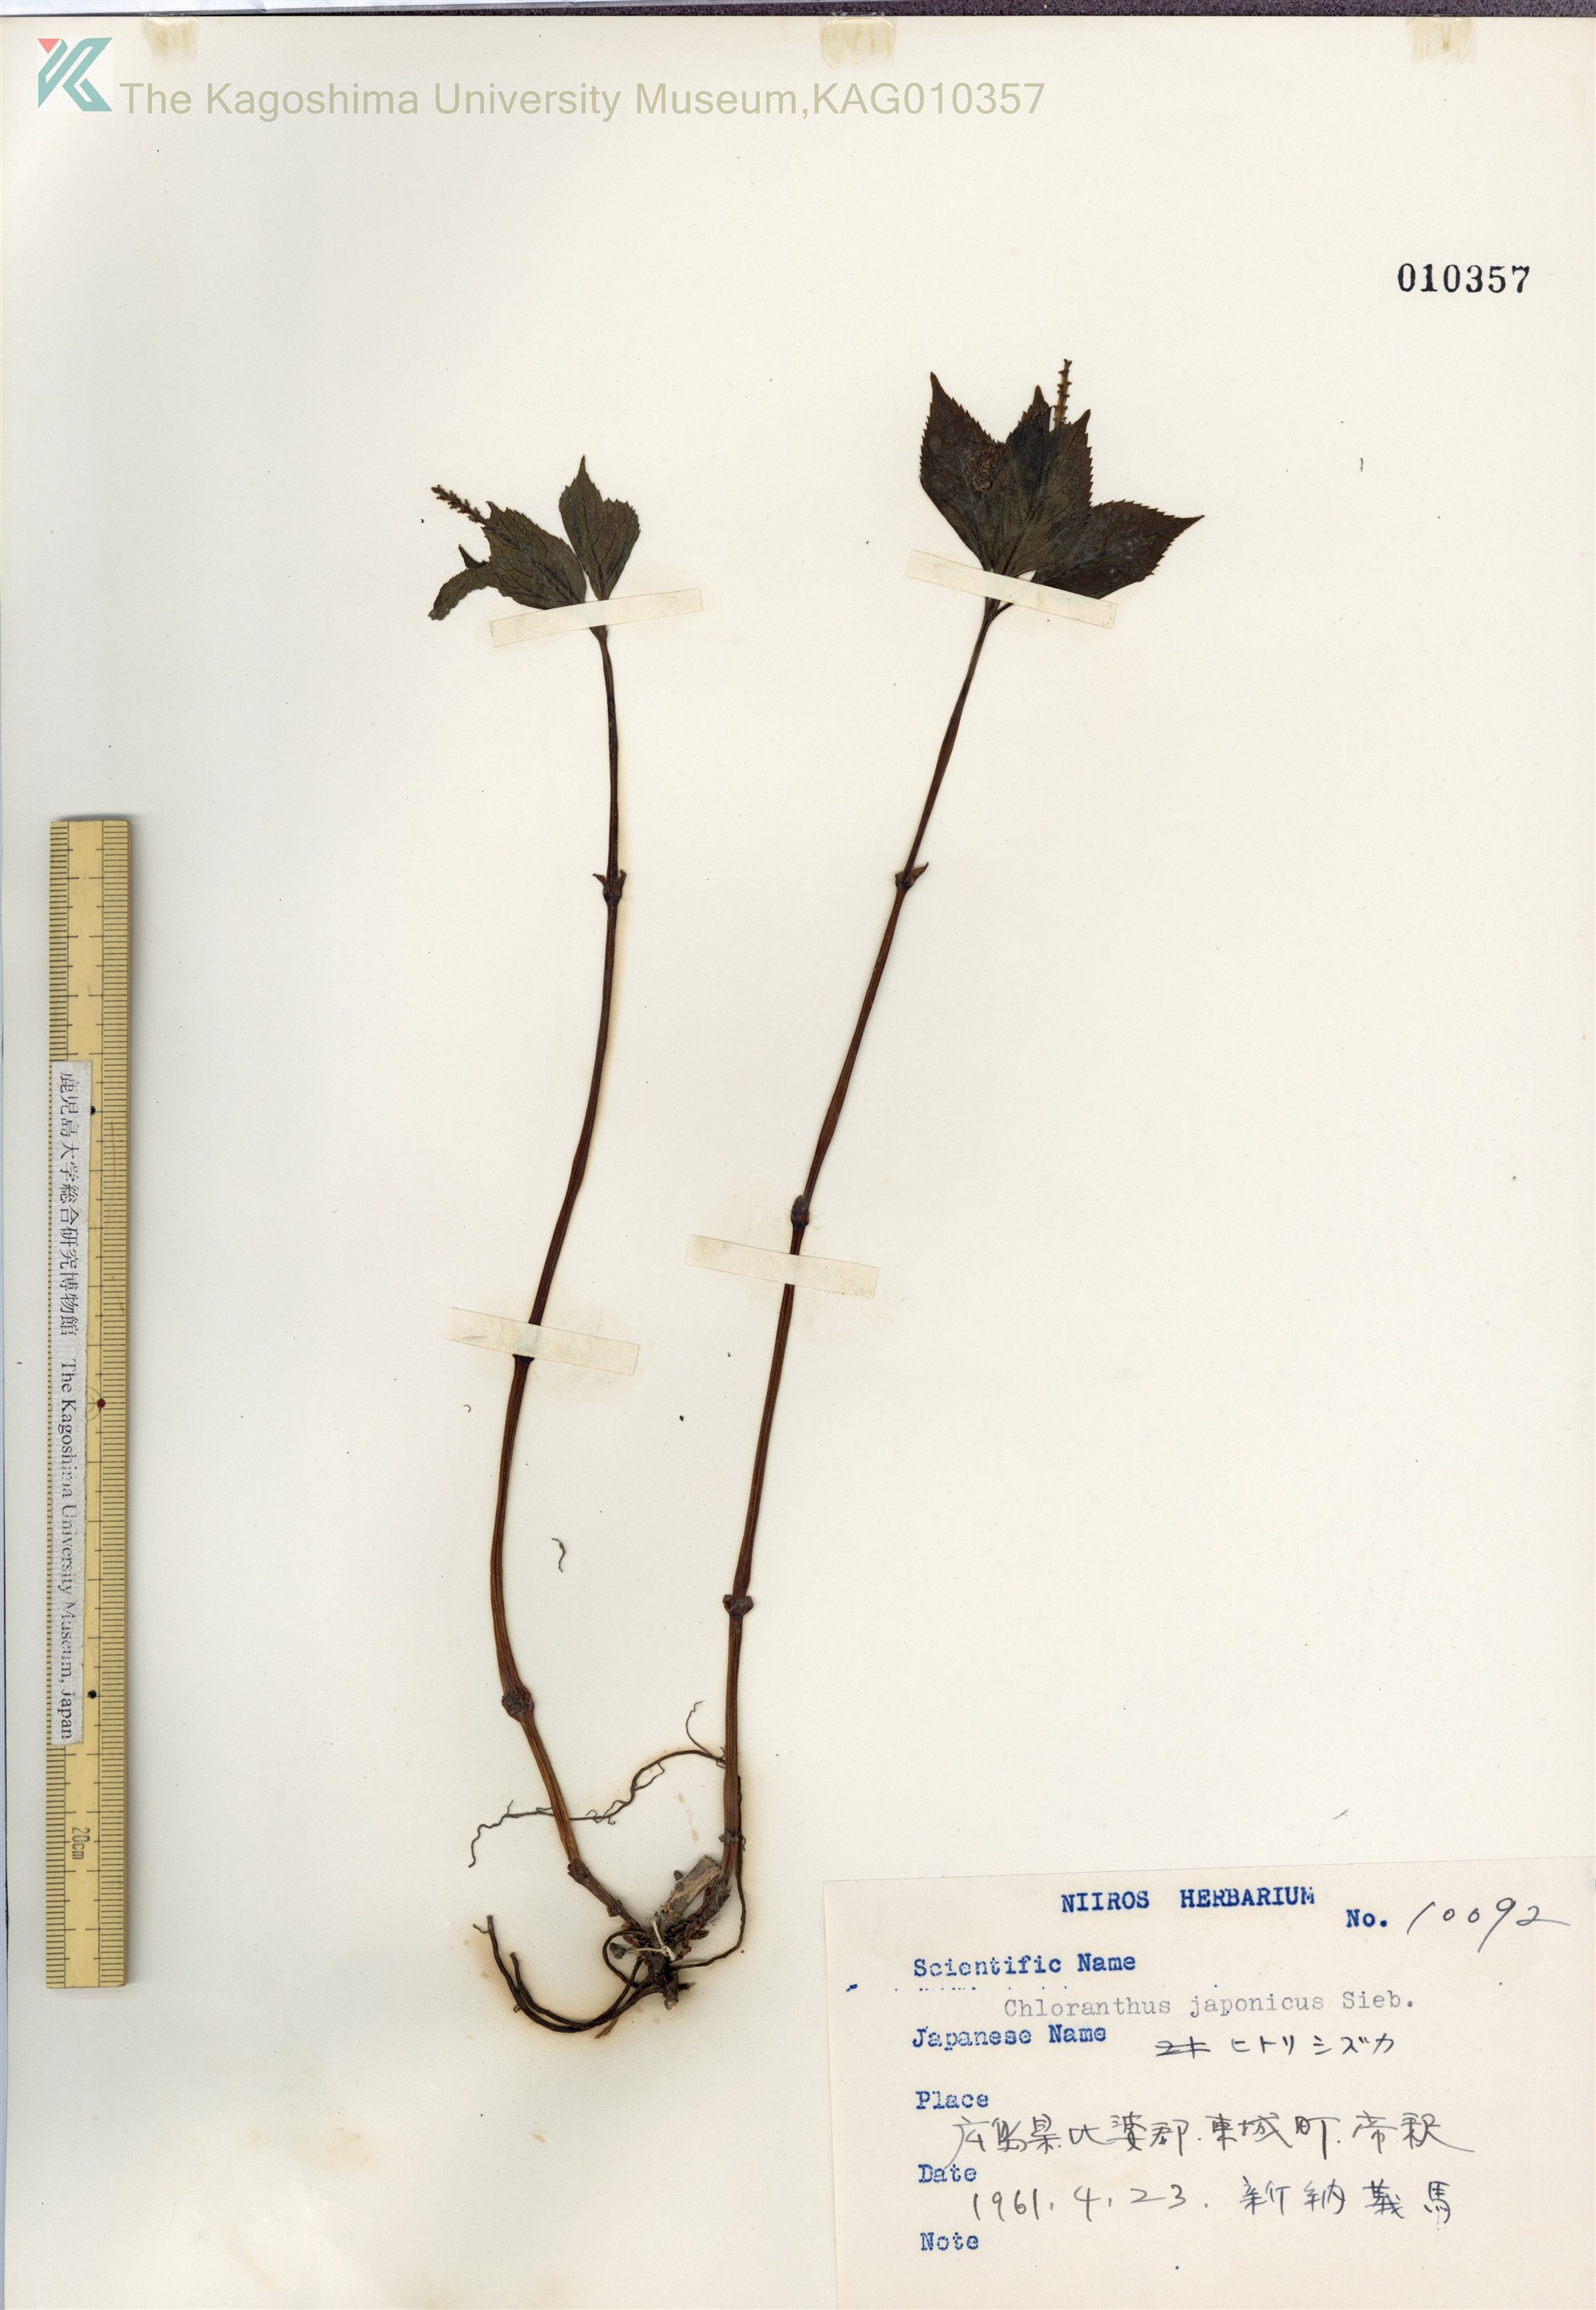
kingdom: Plantae
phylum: Tracheophyta
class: Magnoliopsida
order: Chloranthales
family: Chloranthaceae
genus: Chloranthus
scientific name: Chloranthus japonicus
